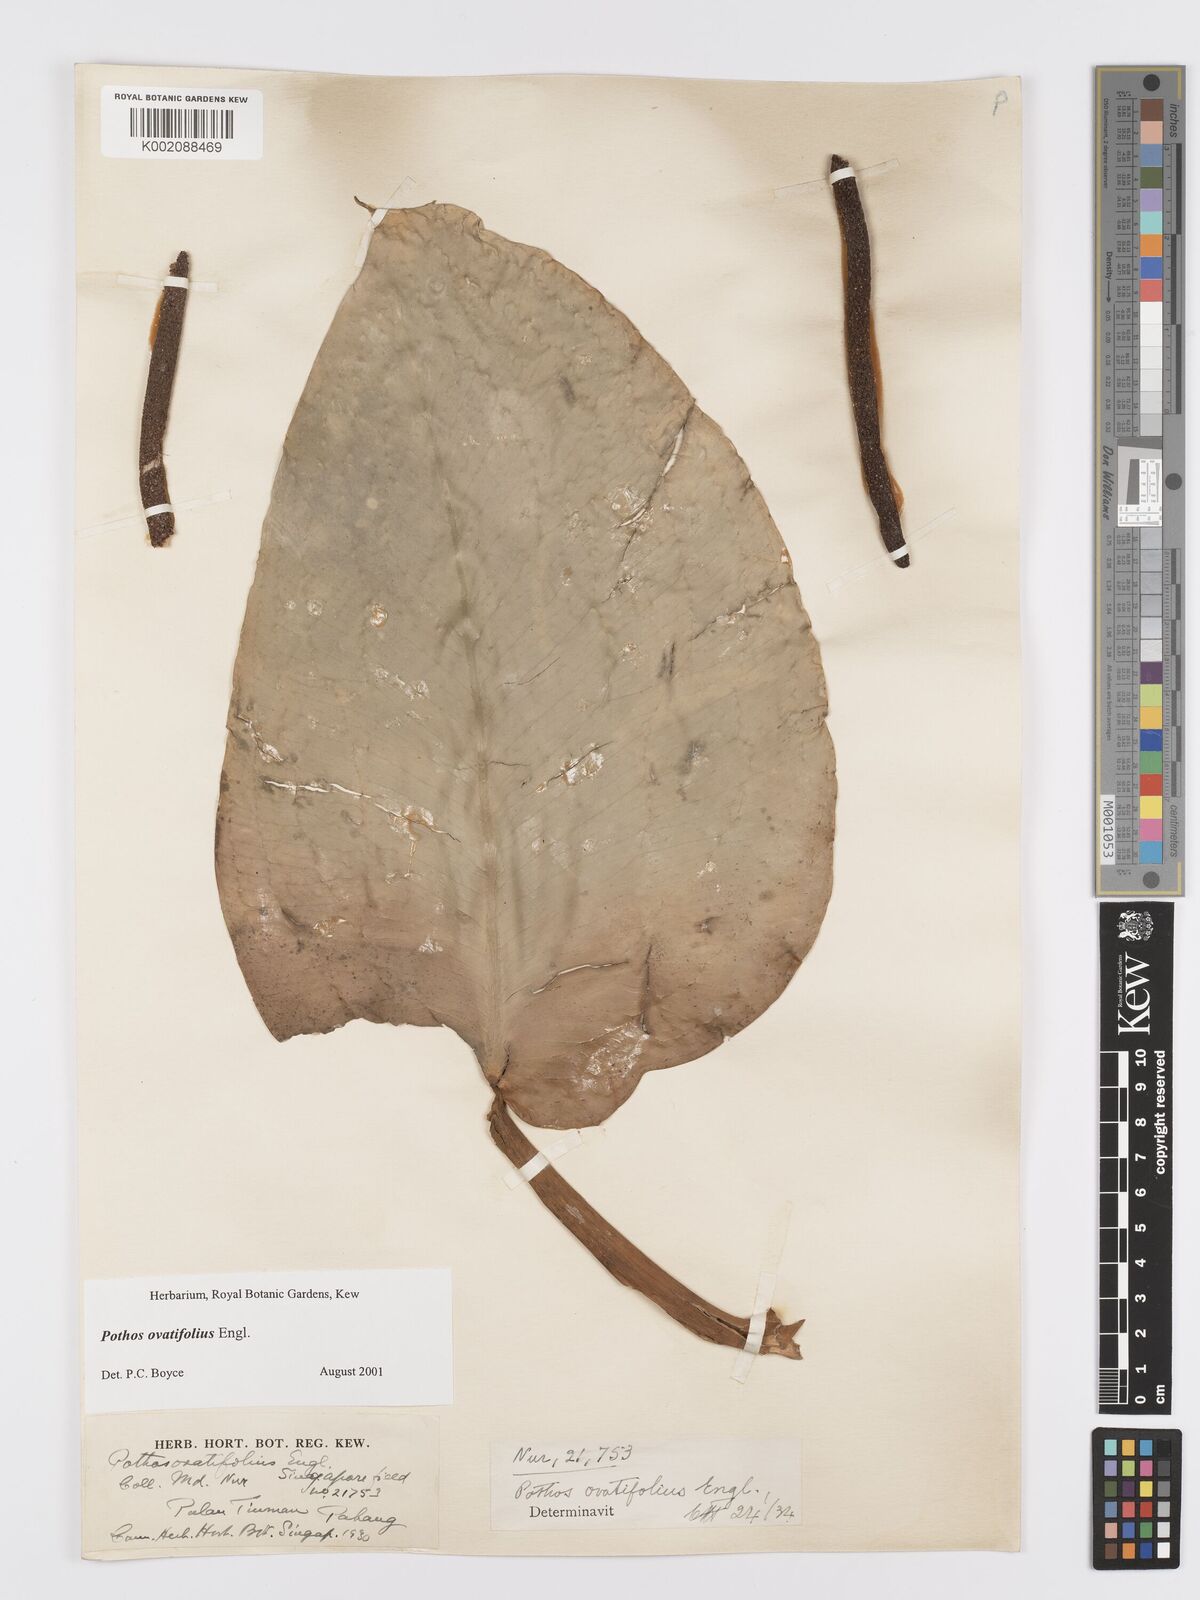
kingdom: Plantae
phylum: Tracheophyta
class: Liliopsida
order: Alismatales
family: Araceae
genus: Pothos
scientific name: Pothos ovatifolius
